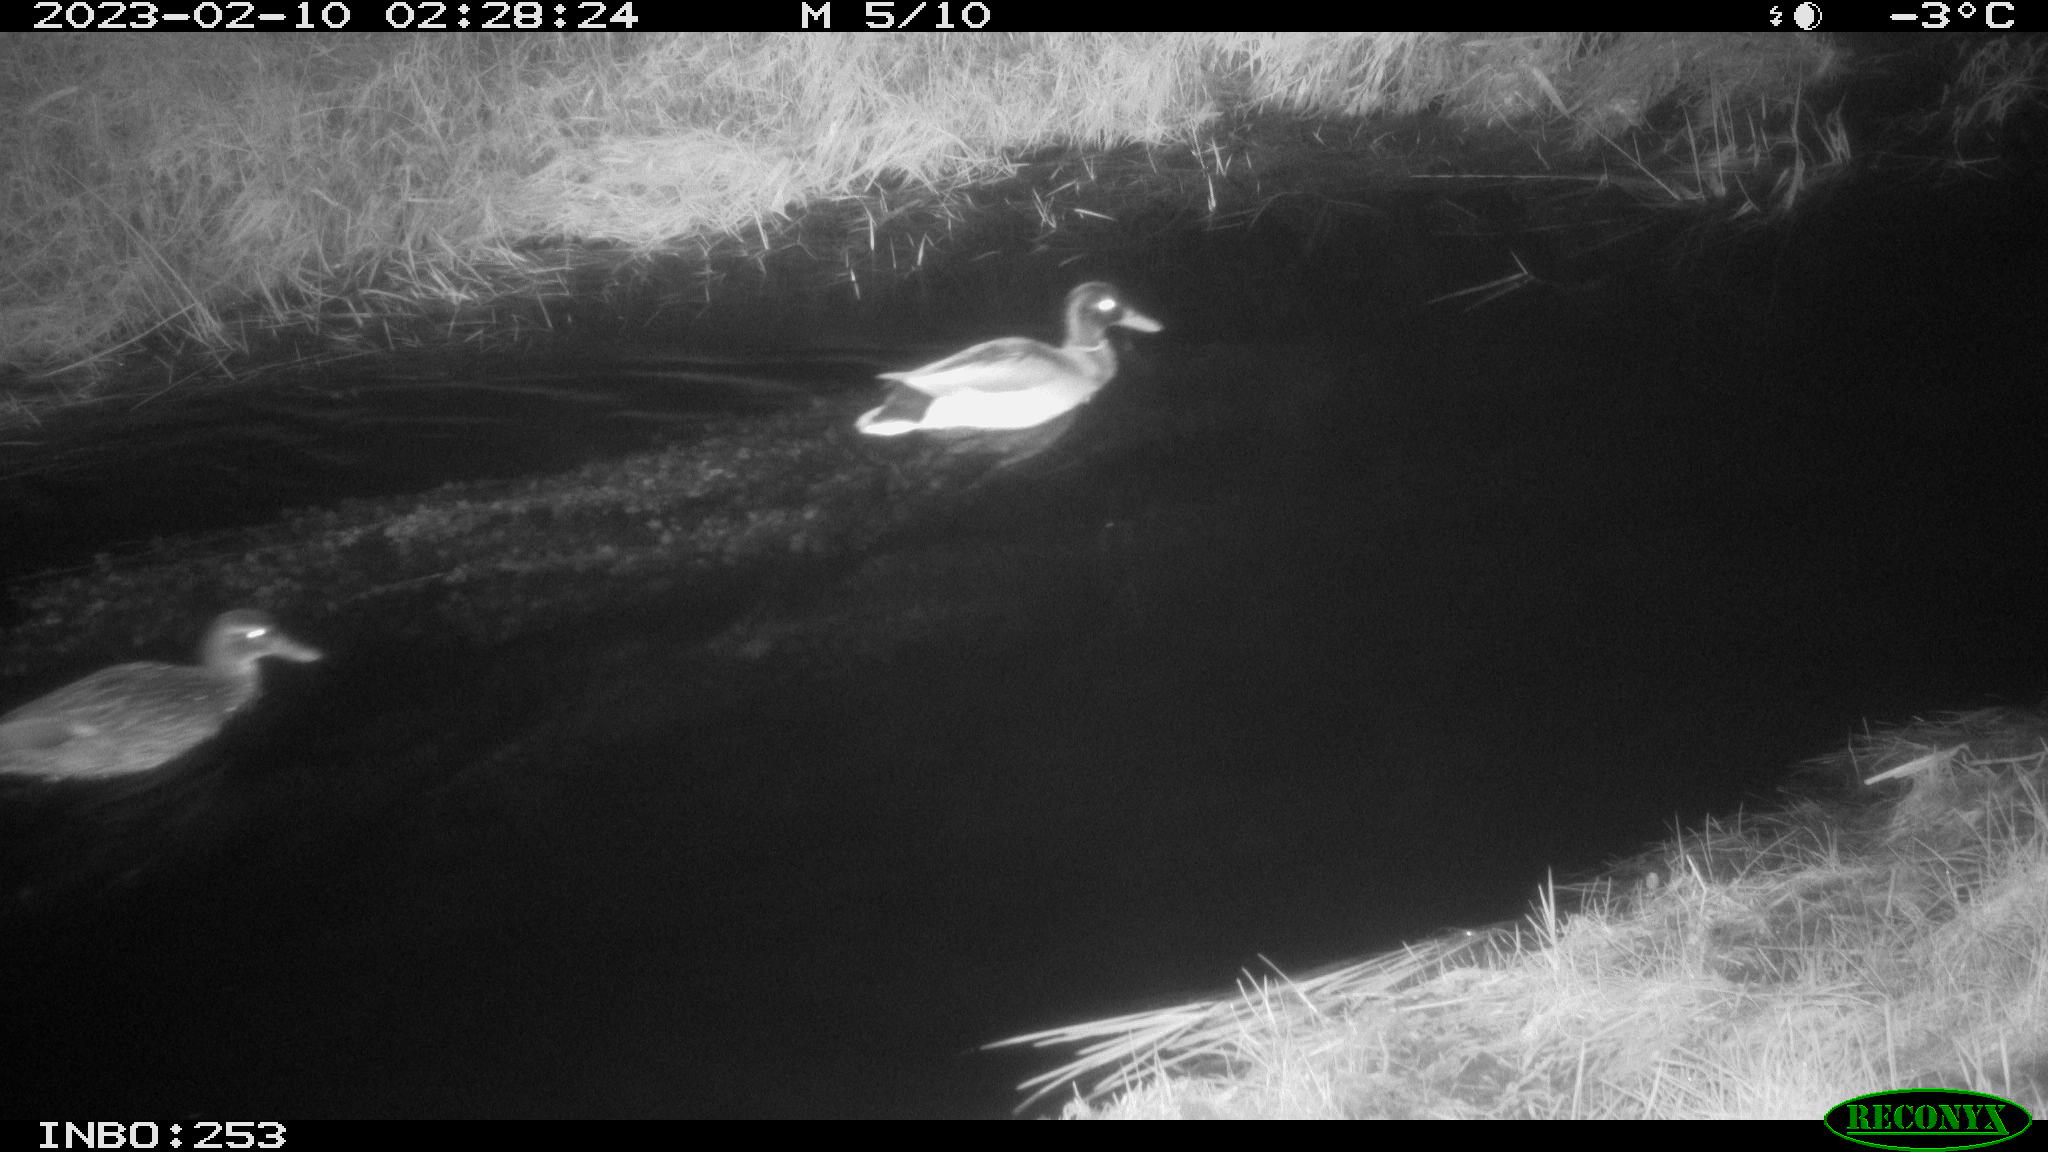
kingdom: Animalia
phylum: Chordata
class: Aves
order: Anseriformes
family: Anatidae
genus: Anas
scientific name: Anas
